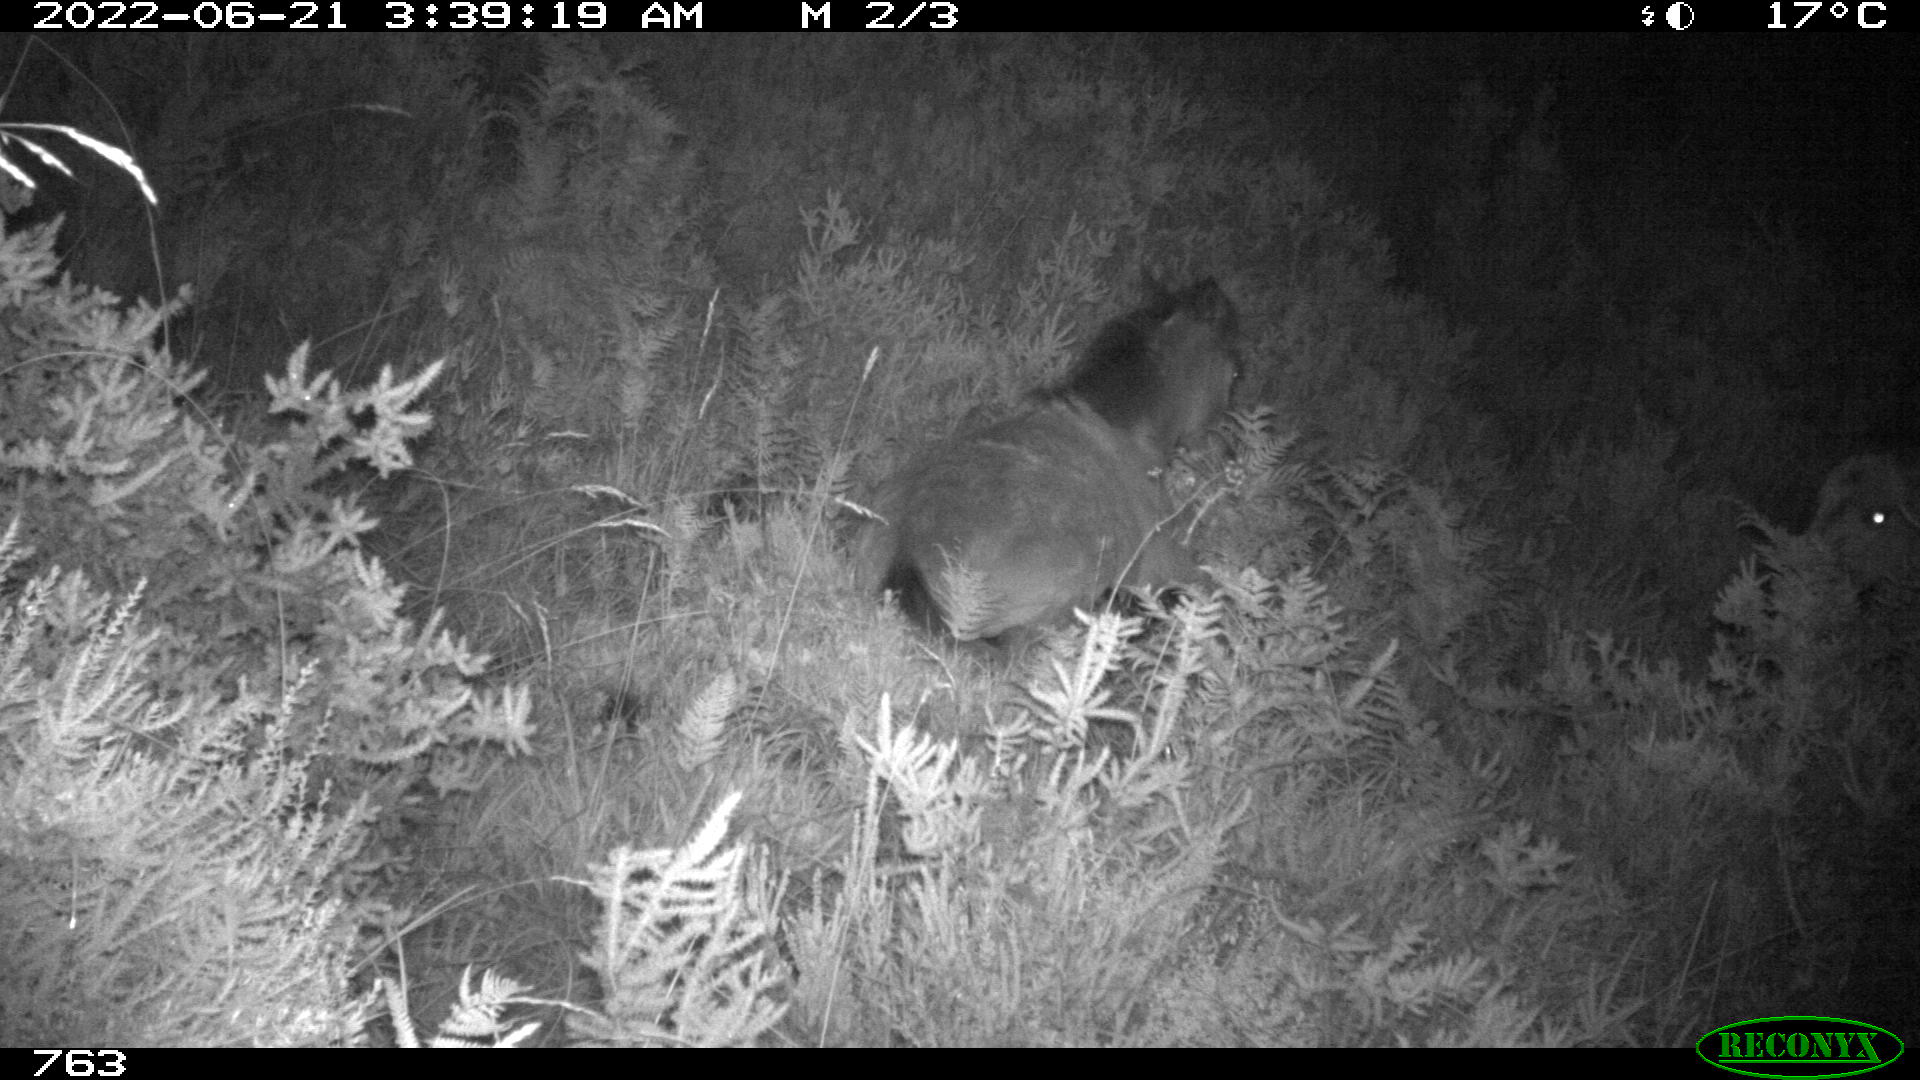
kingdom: Animalia
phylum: Chordata
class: Mammalia
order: Perissodactyla
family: Equidae
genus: Equus
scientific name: Equus caballus
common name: Horse
